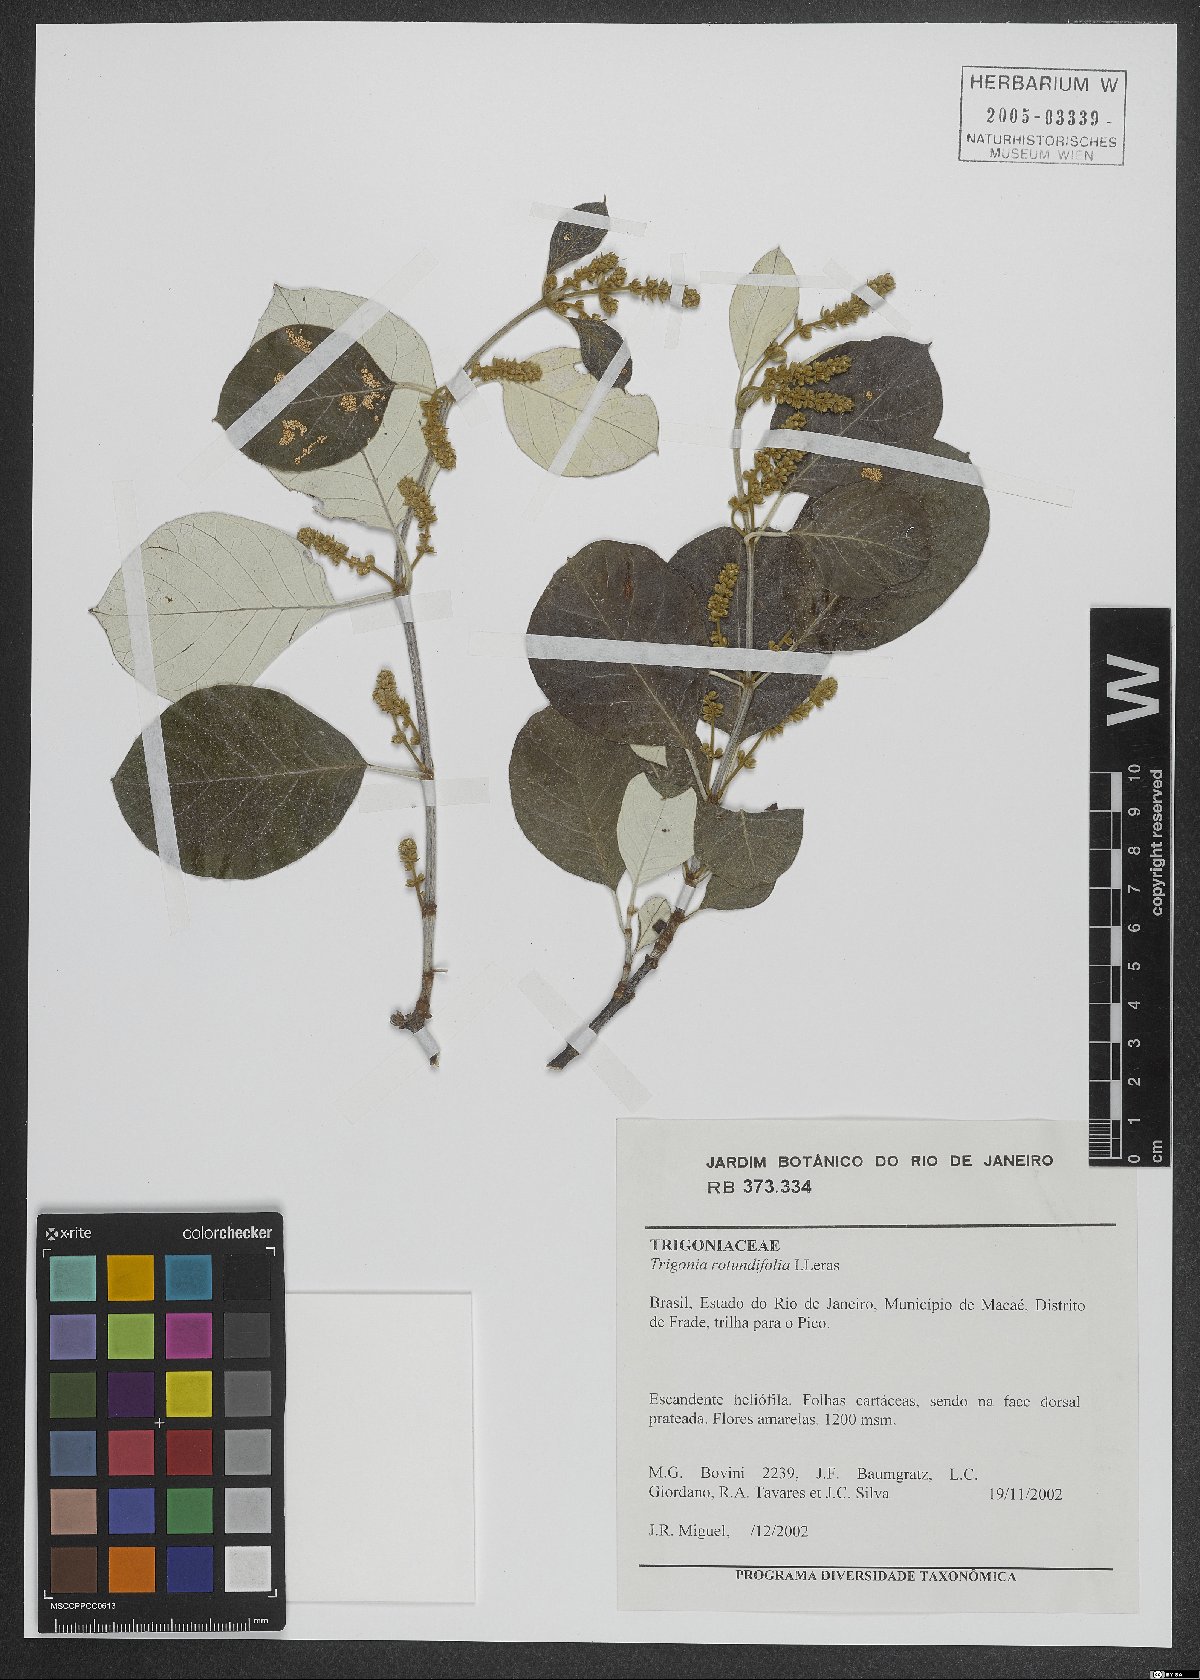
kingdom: Plantae
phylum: Tracheophyta
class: Magnoliopsida
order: Malpighiales
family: Trigoniaceae
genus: Trigonia
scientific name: Trigonia rotundifolia
